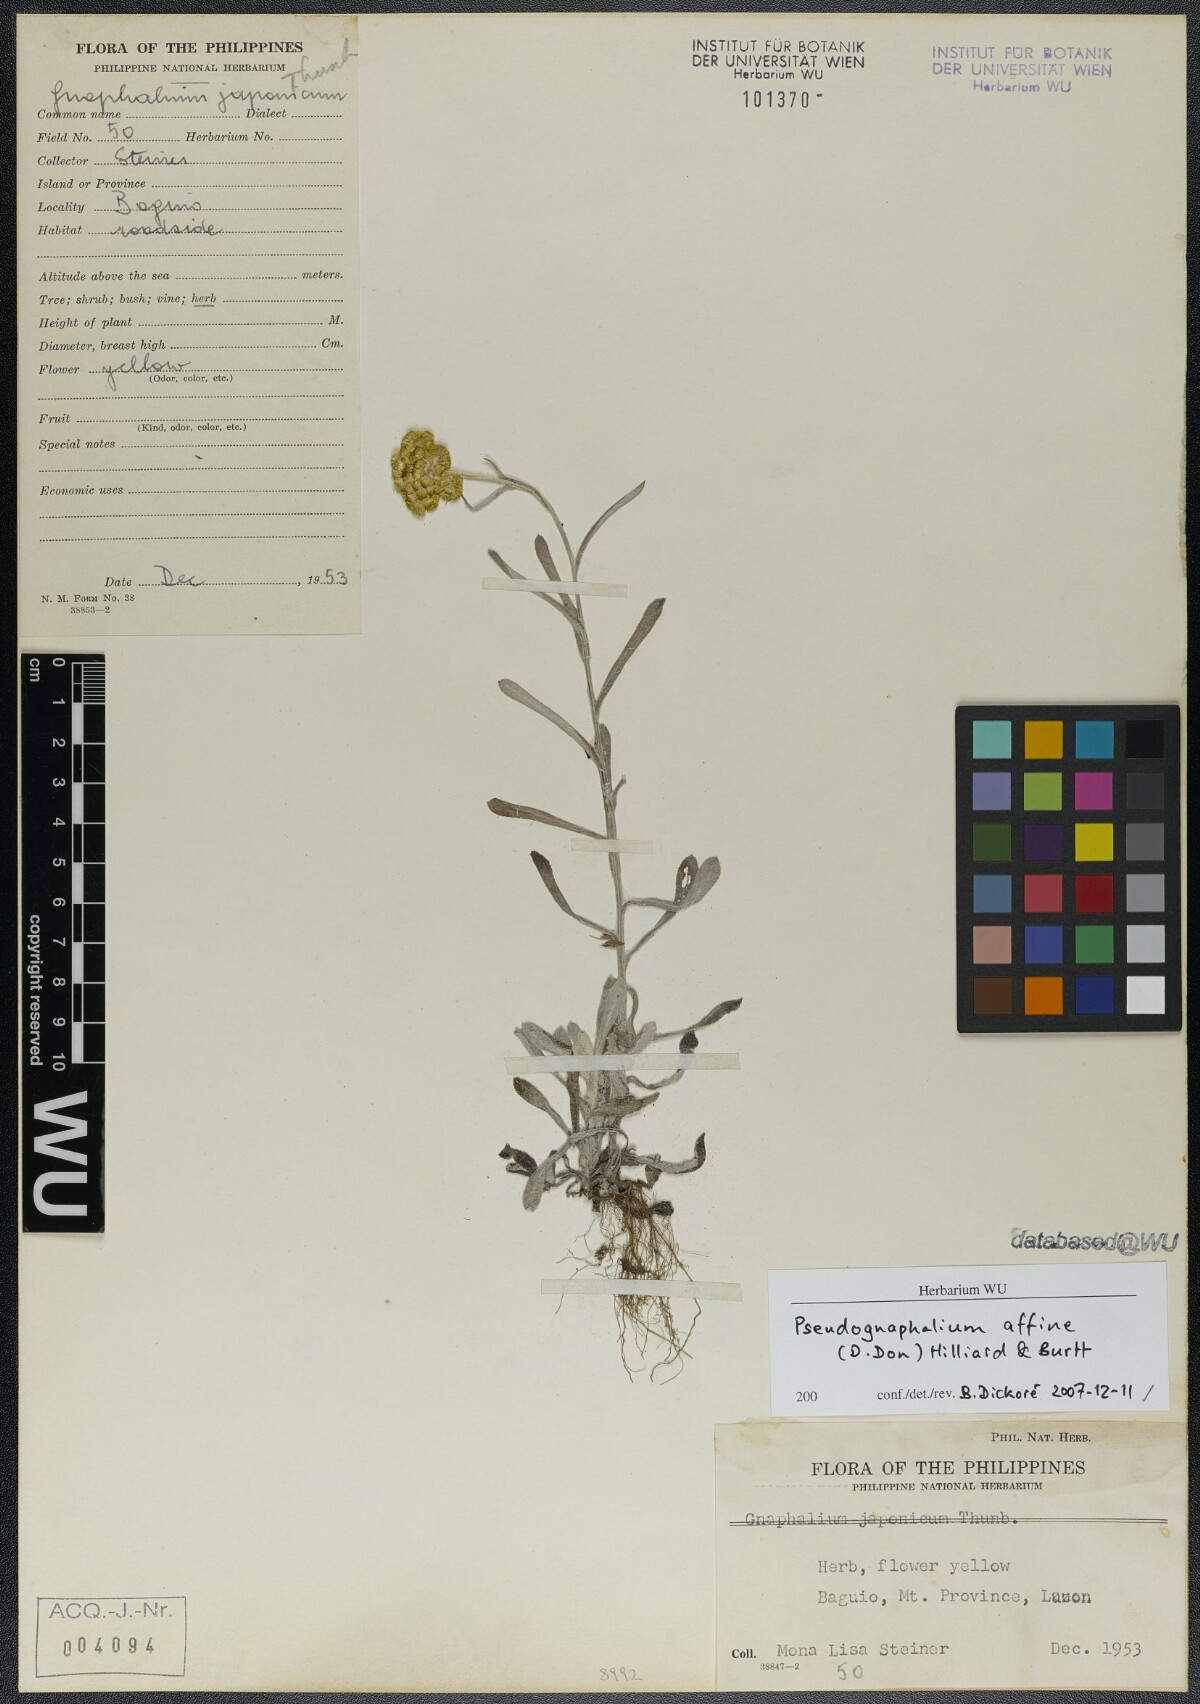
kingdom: Plantae
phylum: Tracheophyta
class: Magnoliopsida
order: Asterales
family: Asteraceae
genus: Pseudognaphalium
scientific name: Pseudognaphalium affine
